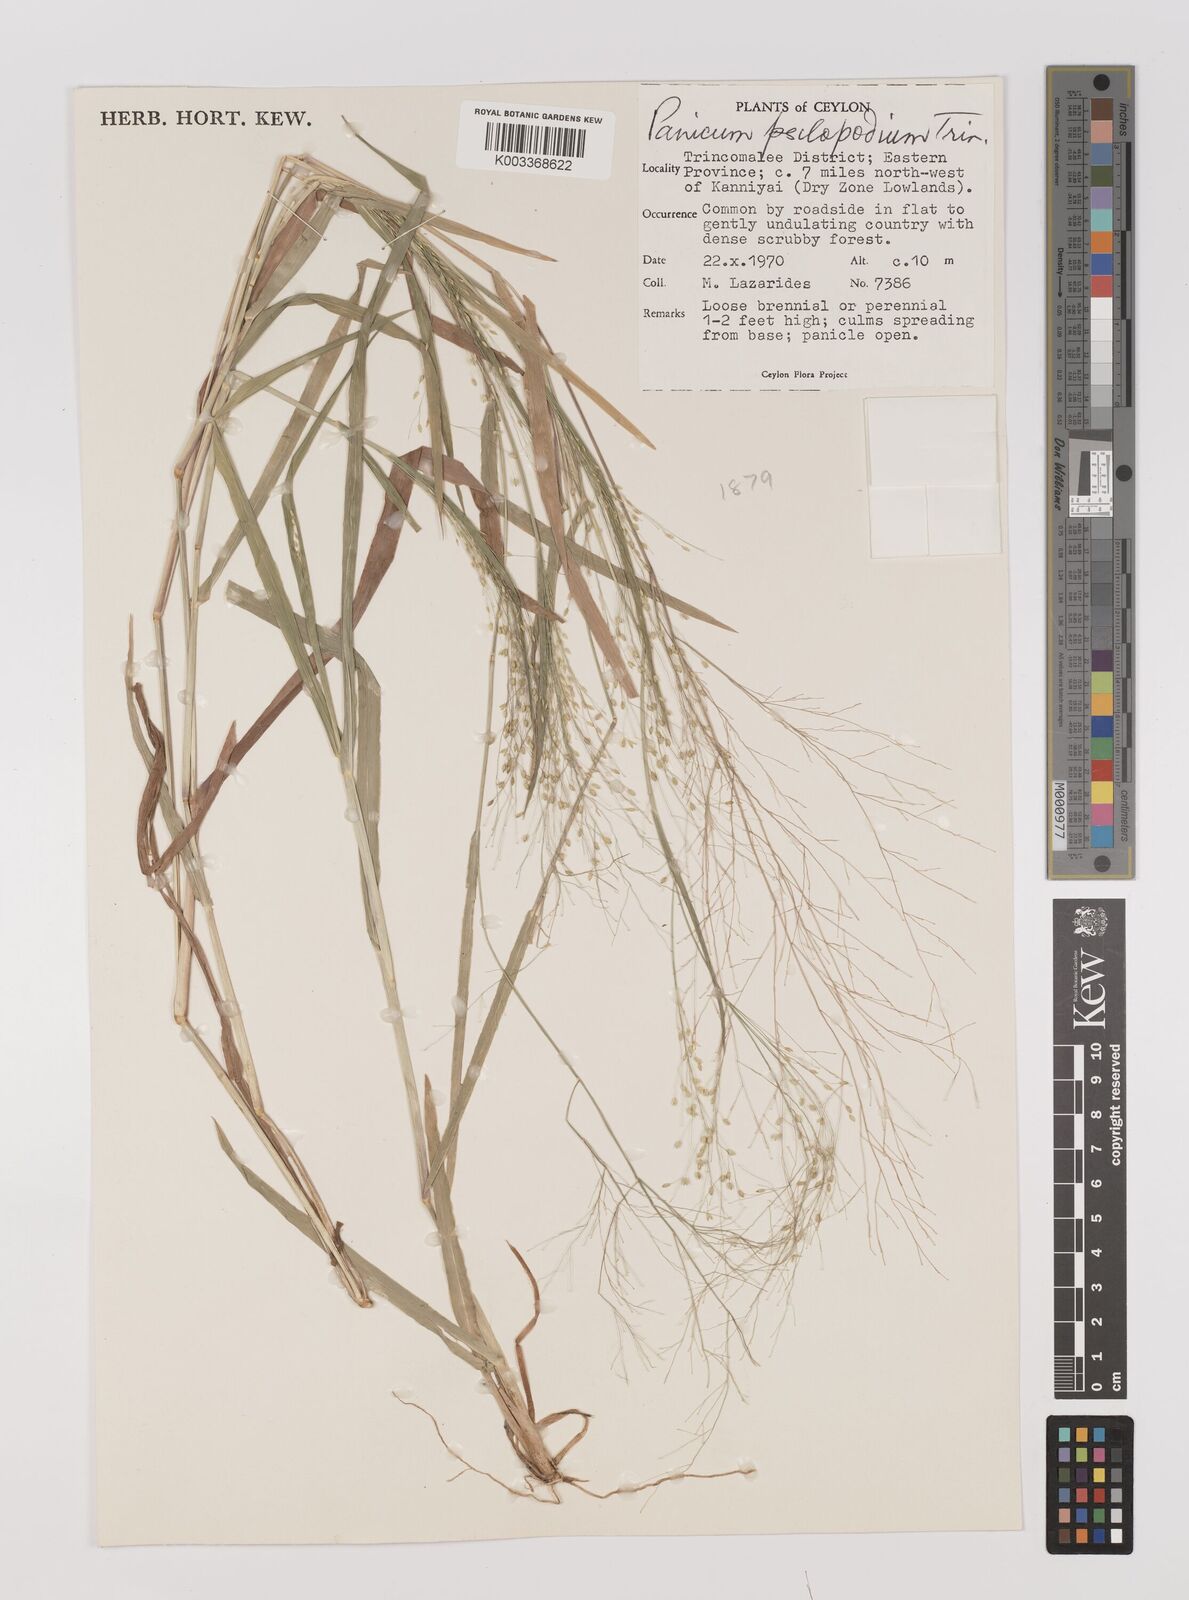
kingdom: Plantae
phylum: Tracheophyta
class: Liliopsida
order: Poales
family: Poaceae
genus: Panicum
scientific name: Panicum sumatrense
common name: Little millet
